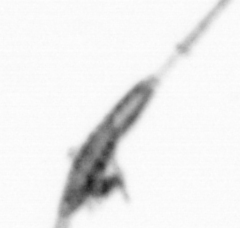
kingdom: Animalia
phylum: Arthropoda
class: Copepoda
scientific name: Copepoda
